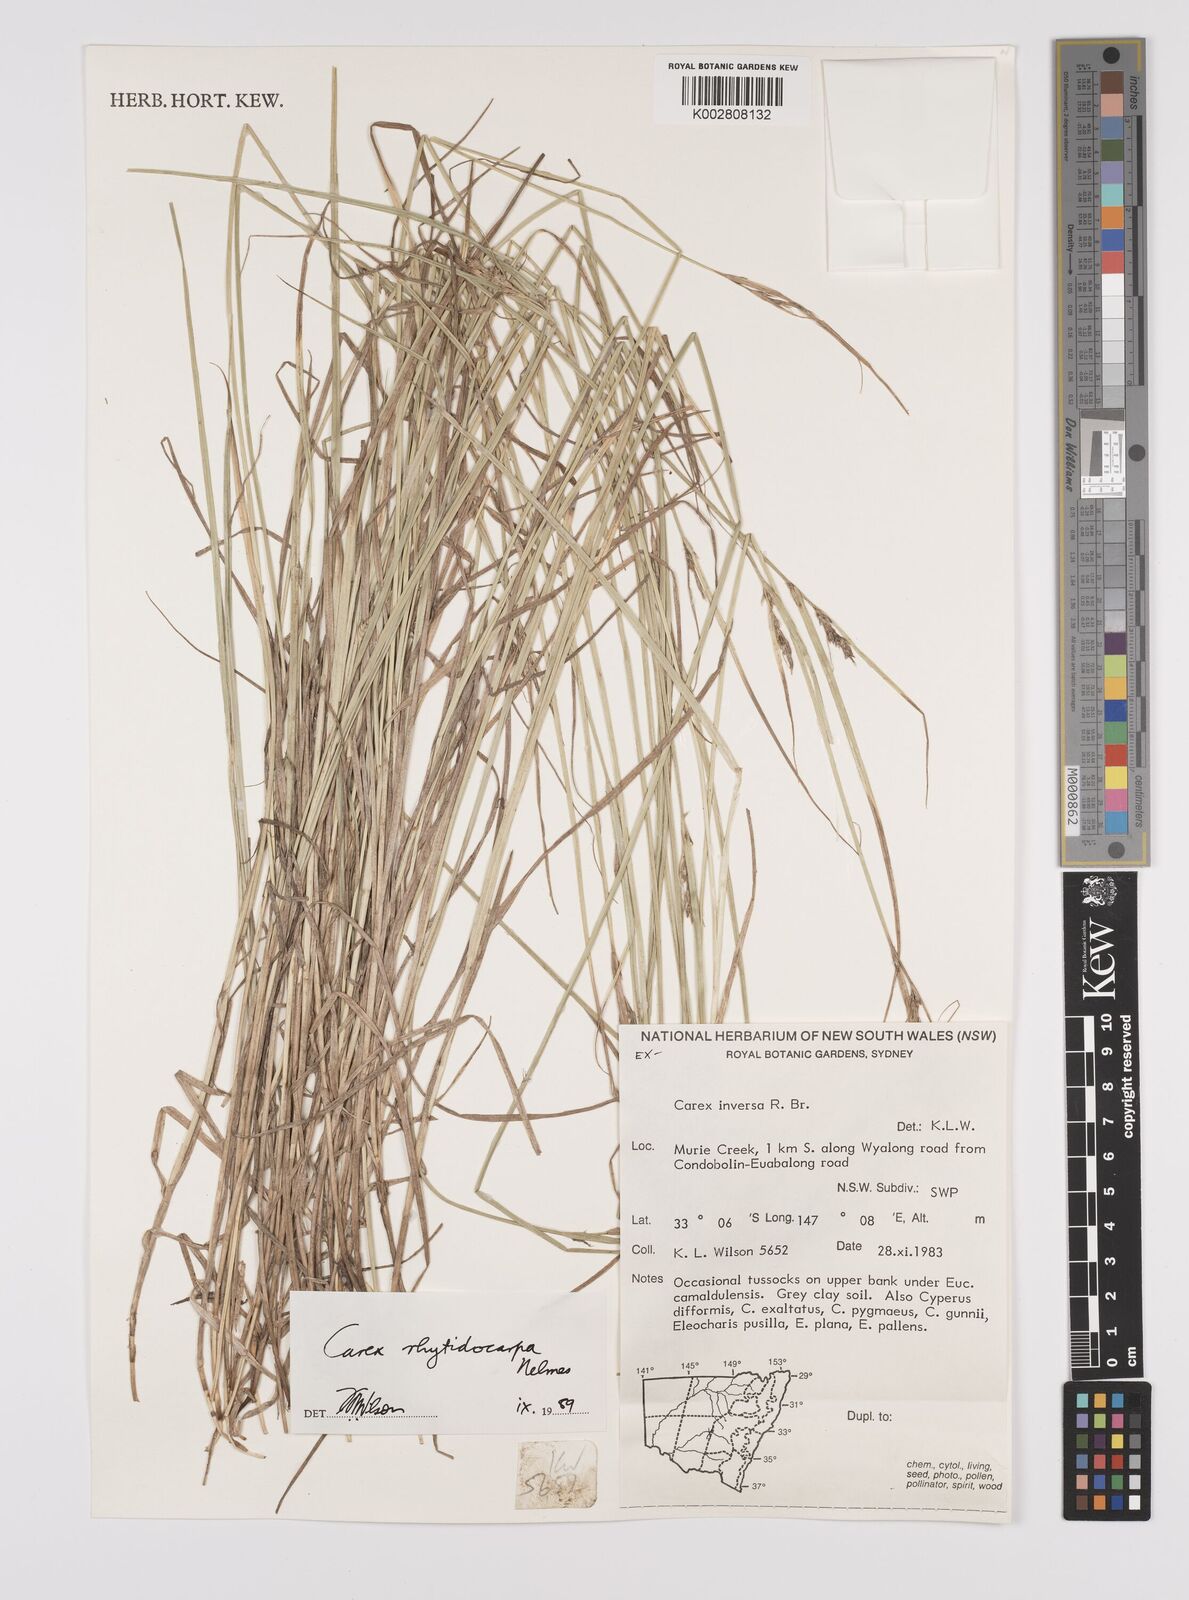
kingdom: Plantae
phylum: Tracheophyta
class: Liliopsida
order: Poales
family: Cyperaceae
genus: Carex
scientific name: Carex inversa
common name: Knob sedge
